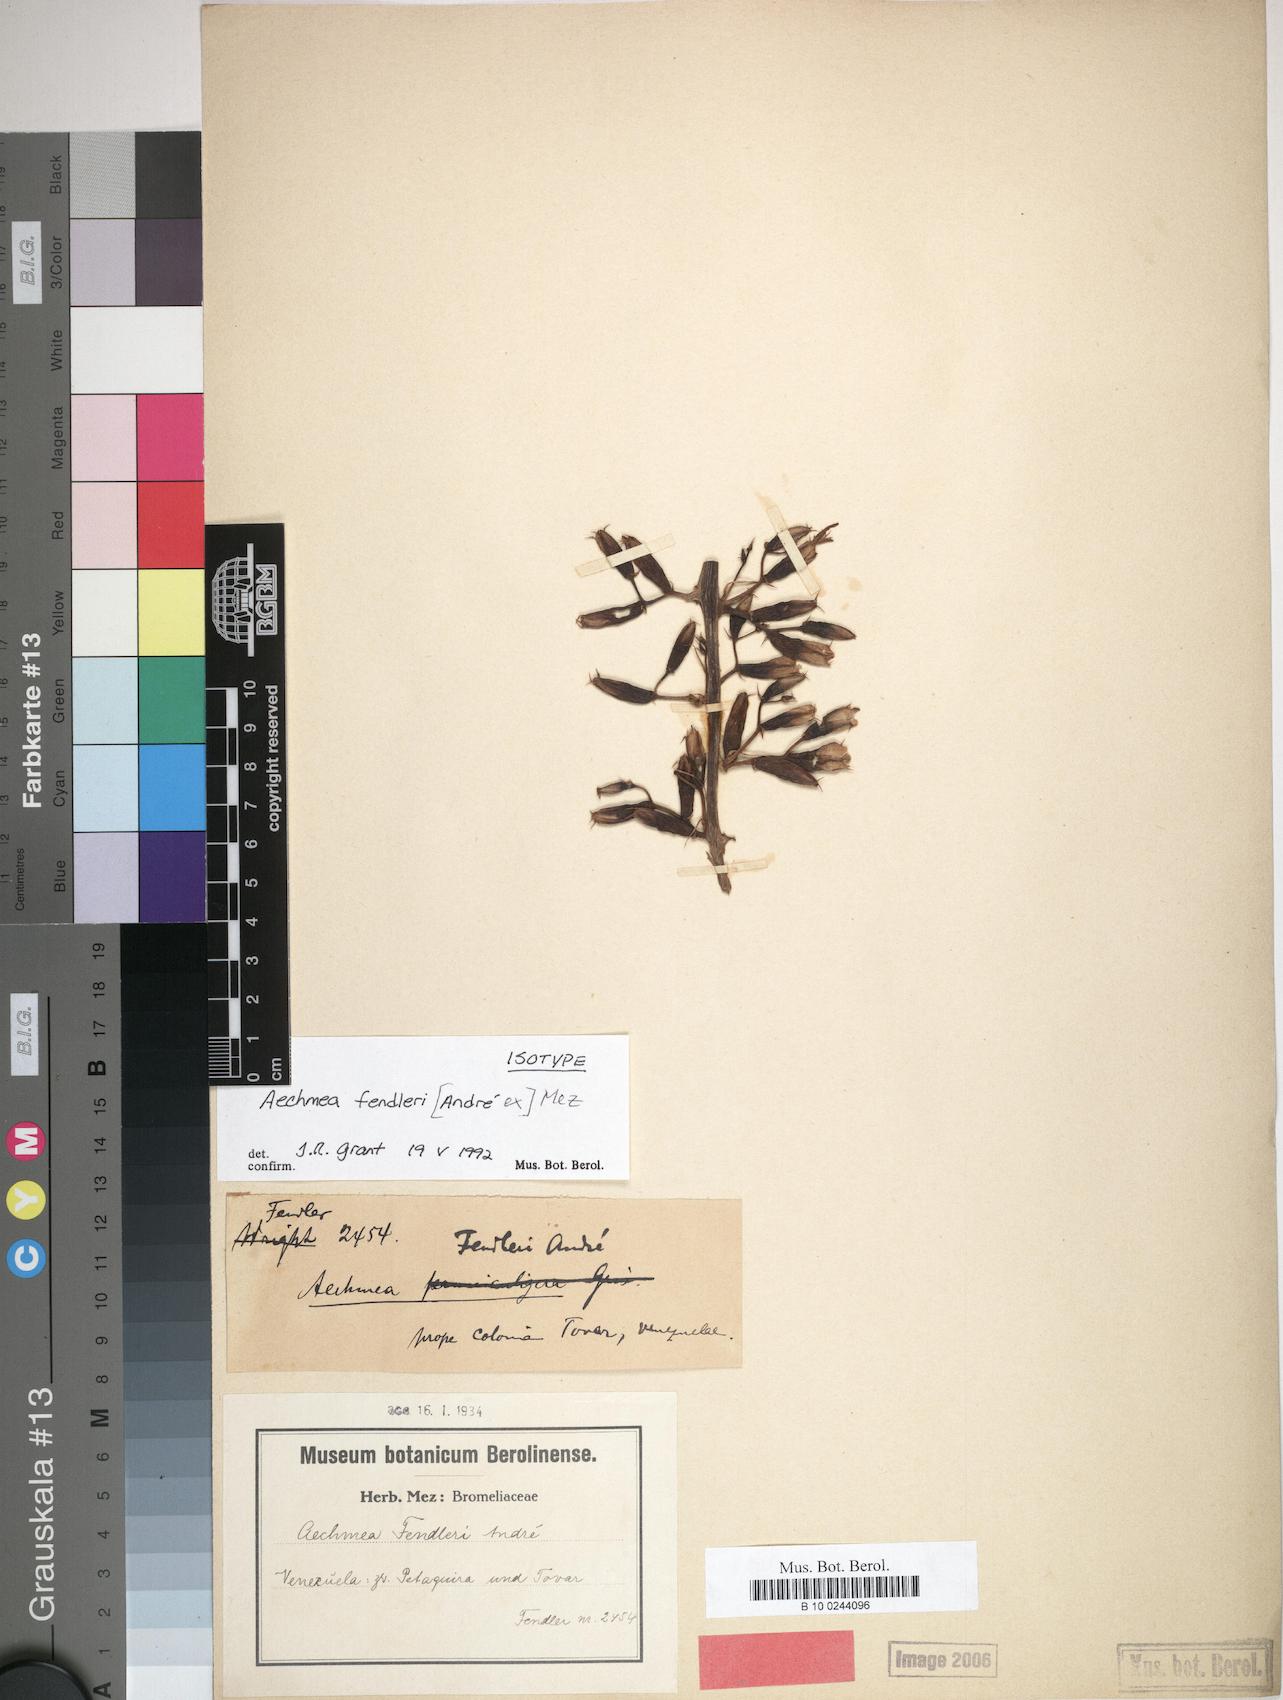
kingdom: Plantae
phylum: Tracheophyta
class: Liliopsida
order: Poales
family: Bromeliaceae
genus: Aechmea
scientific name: Aechmea fendleri
